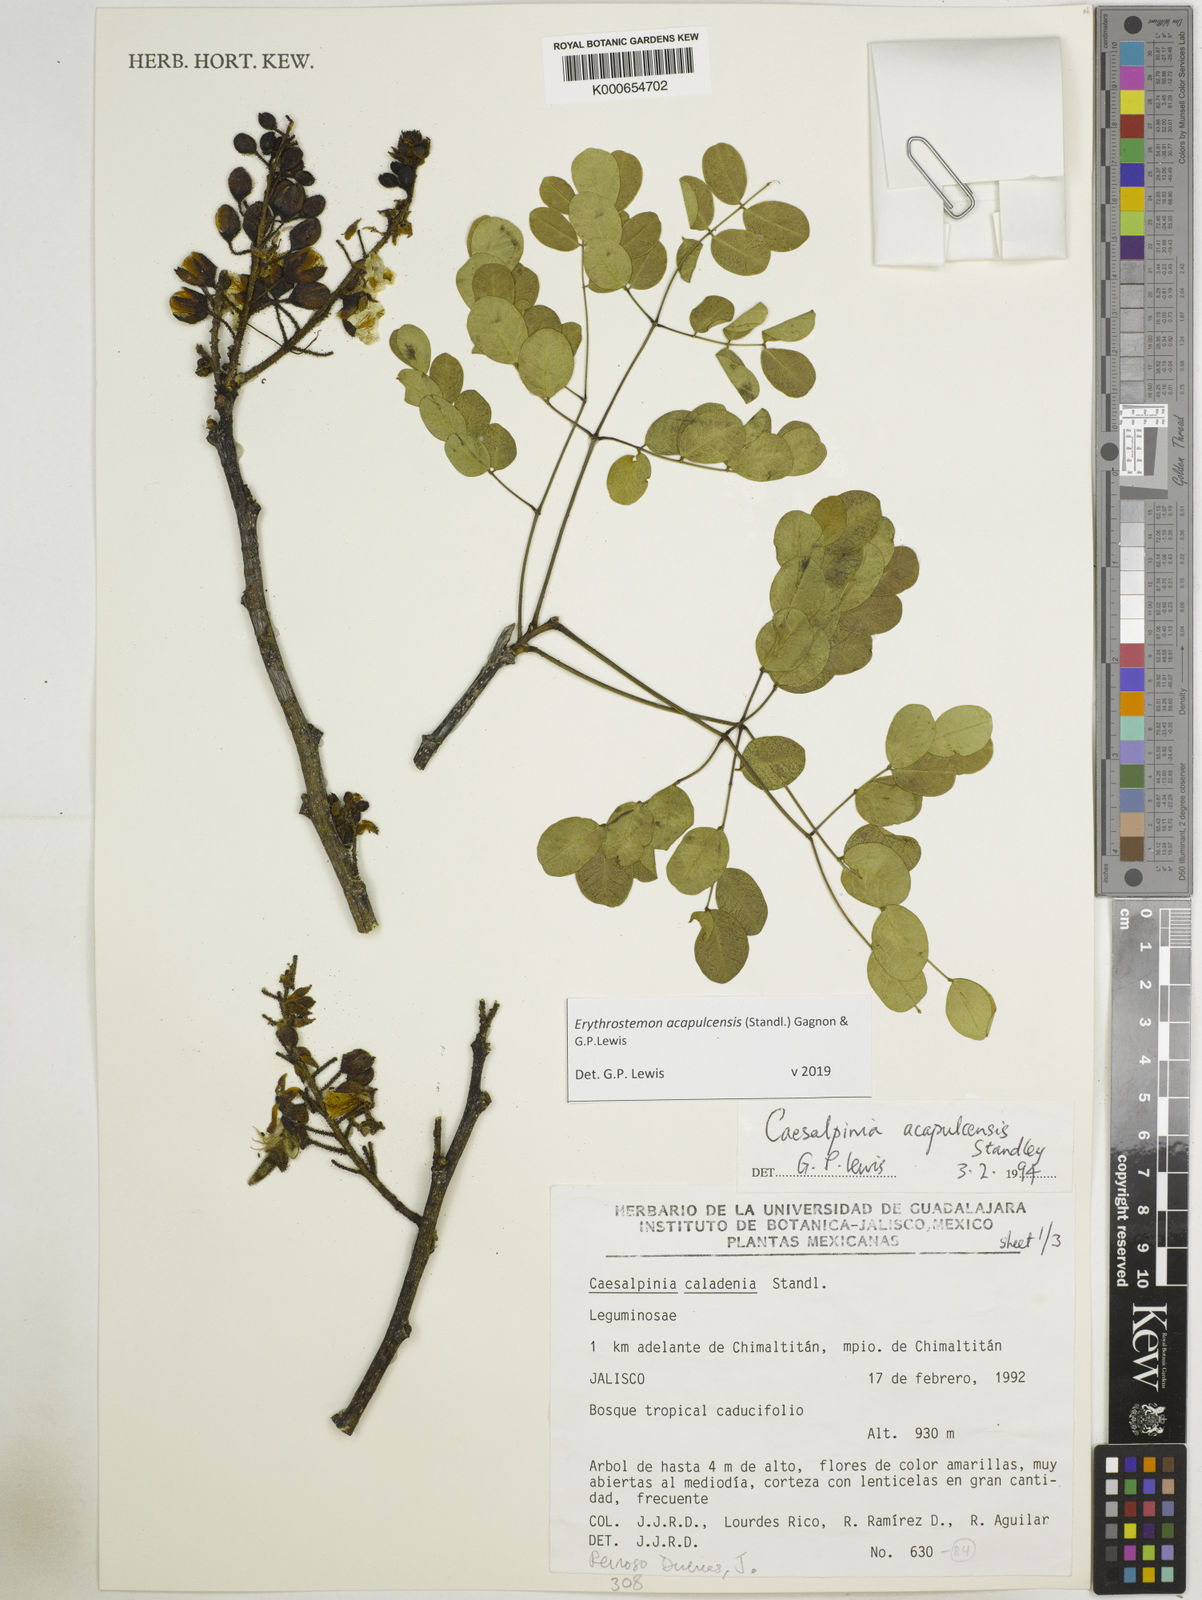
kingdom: Plantae
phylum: Tracheophyta
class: Magnoliopsida
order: Fabales
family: Fabaceae
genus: Erythrostemon
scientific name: Erythrostemon acapulcensis
